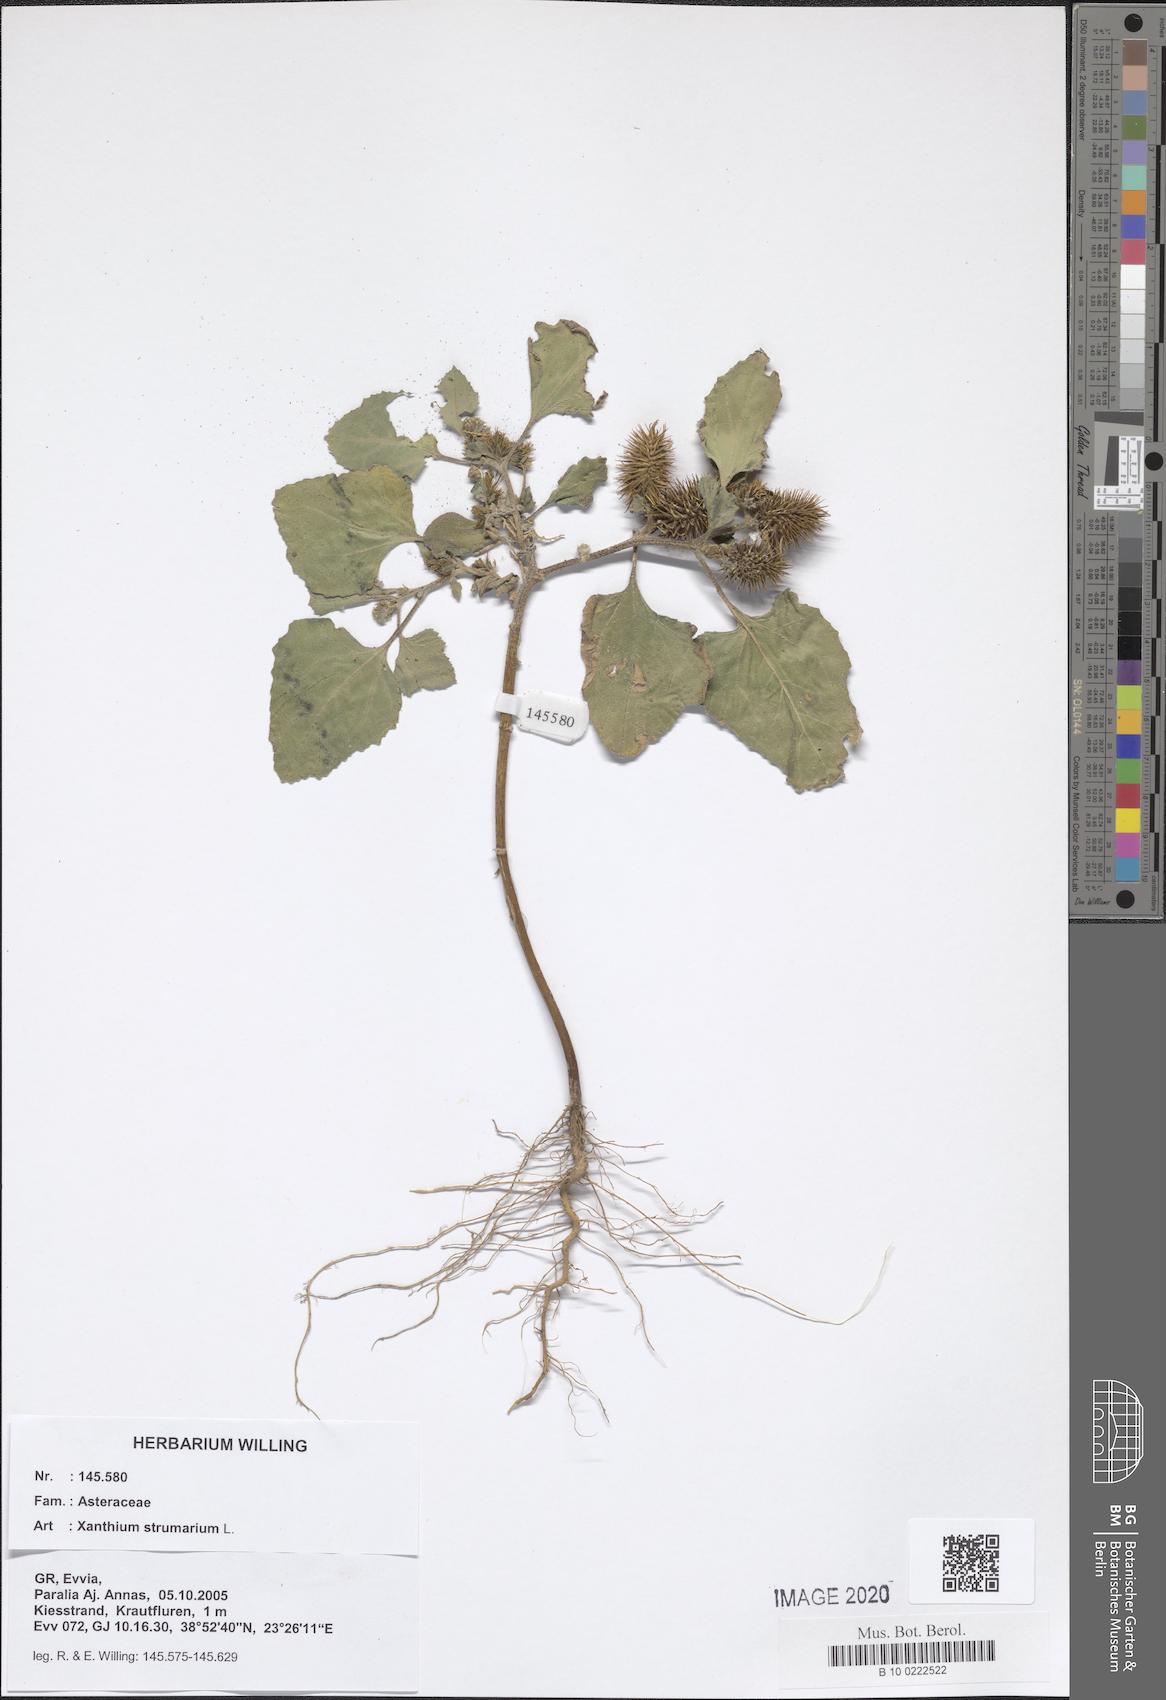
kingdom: Plantae
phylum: Tracheophyta
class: Magnoliopsida
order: Asterales
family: Asteraceae
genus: Xanthium
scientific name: Xanthium strumarium
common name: Rough cocklebur
